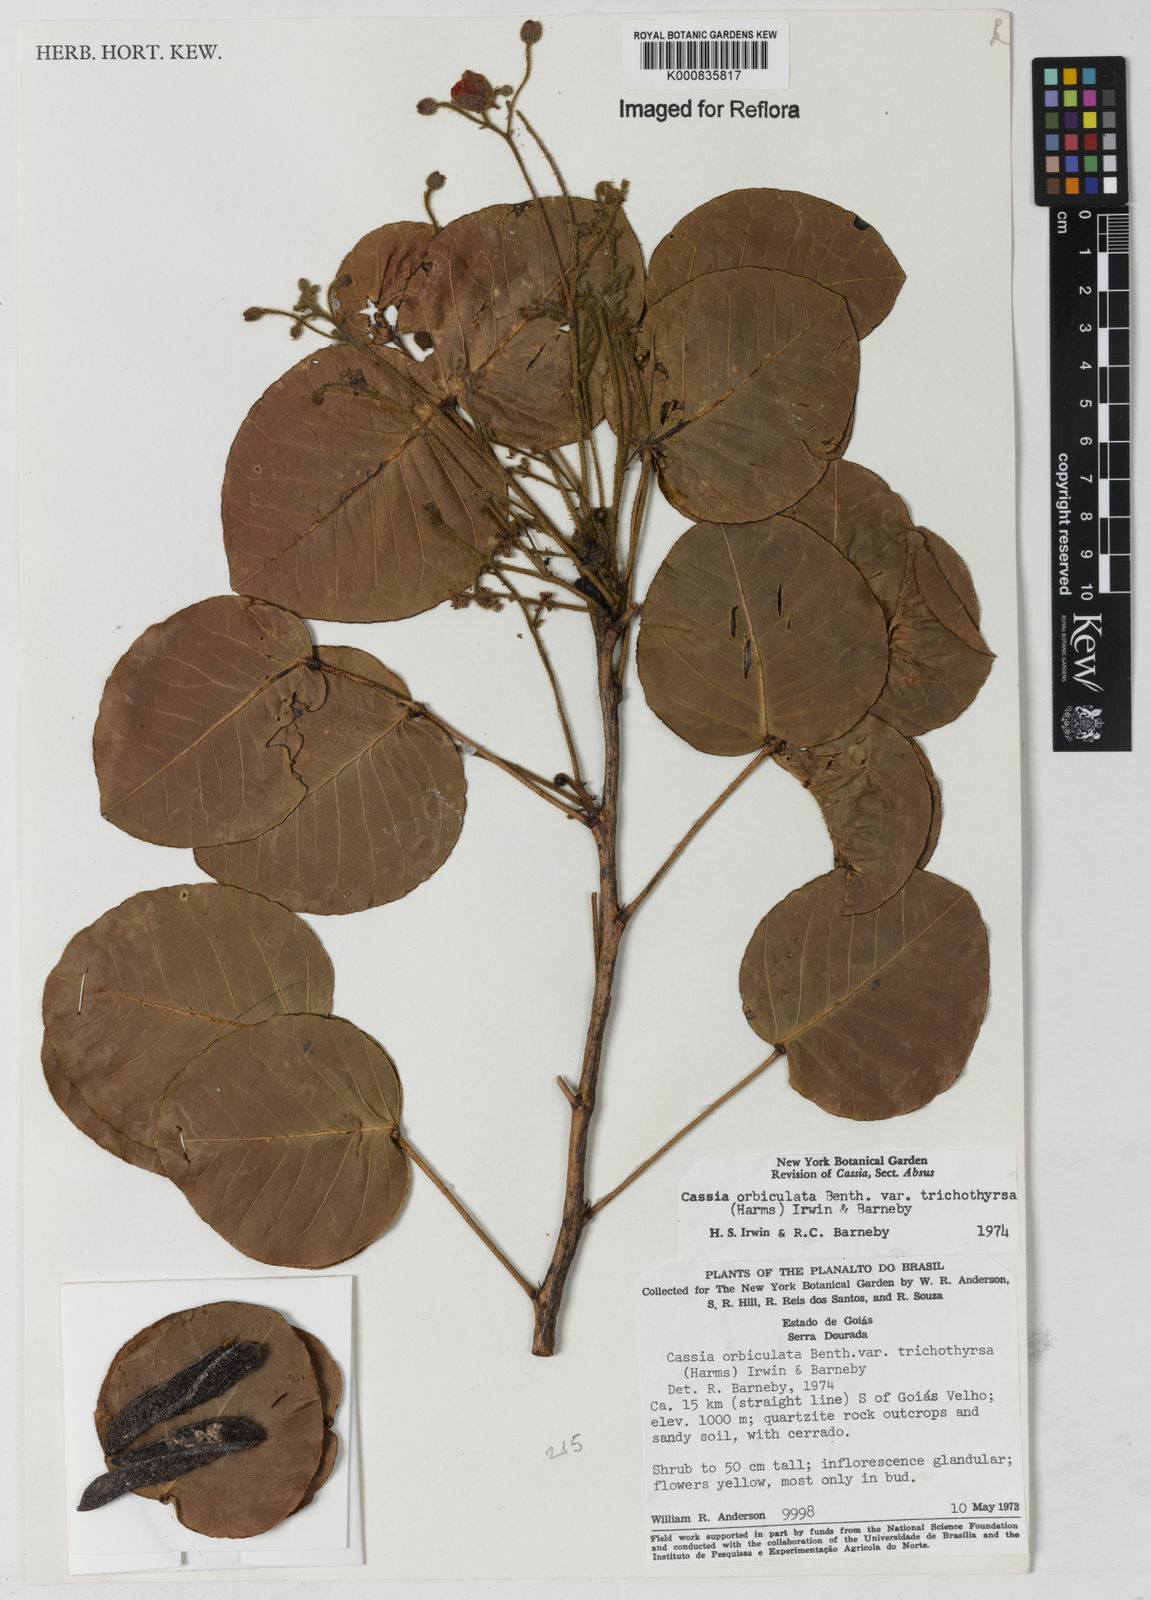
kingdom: Plantae
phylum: Tracheophyta
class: Magnoliopsida
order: Fabales
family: Fabaceae
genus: Chamaecrista
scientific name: Chamaecrista trichothyrsus
